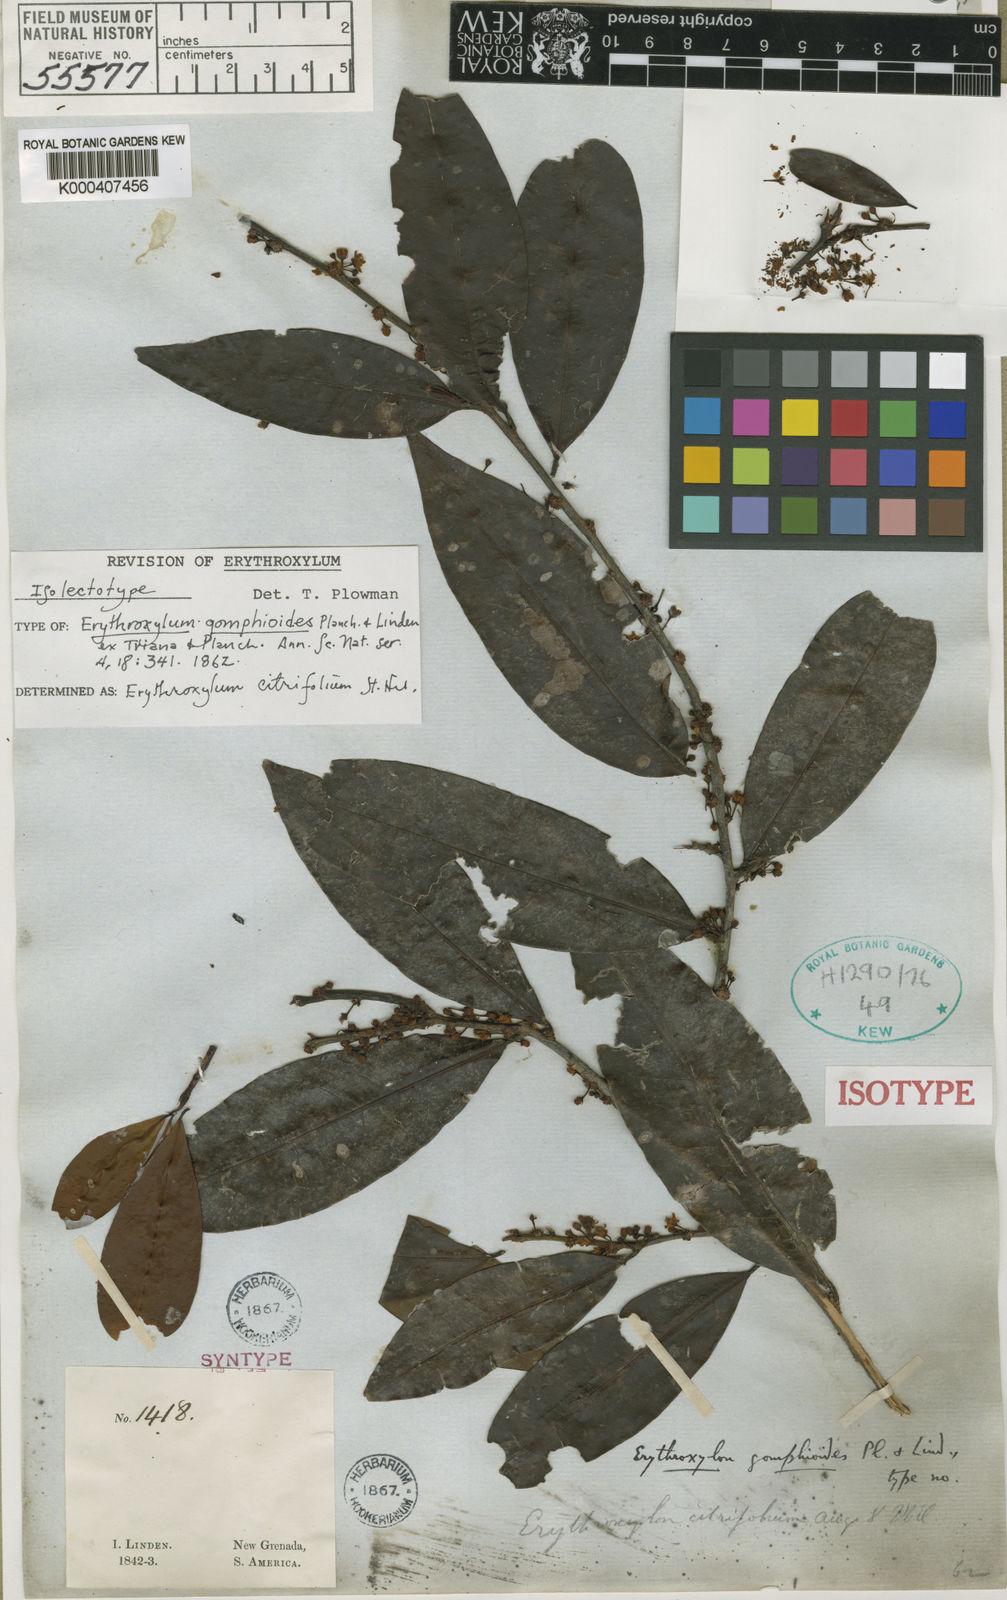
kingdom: Plantae
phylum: Tracheophyta
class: Magnoliopsida
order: Malpighiales
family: Erythroxylaceae
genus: Erythroxylum
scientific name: Erythroxylum citrifolium
